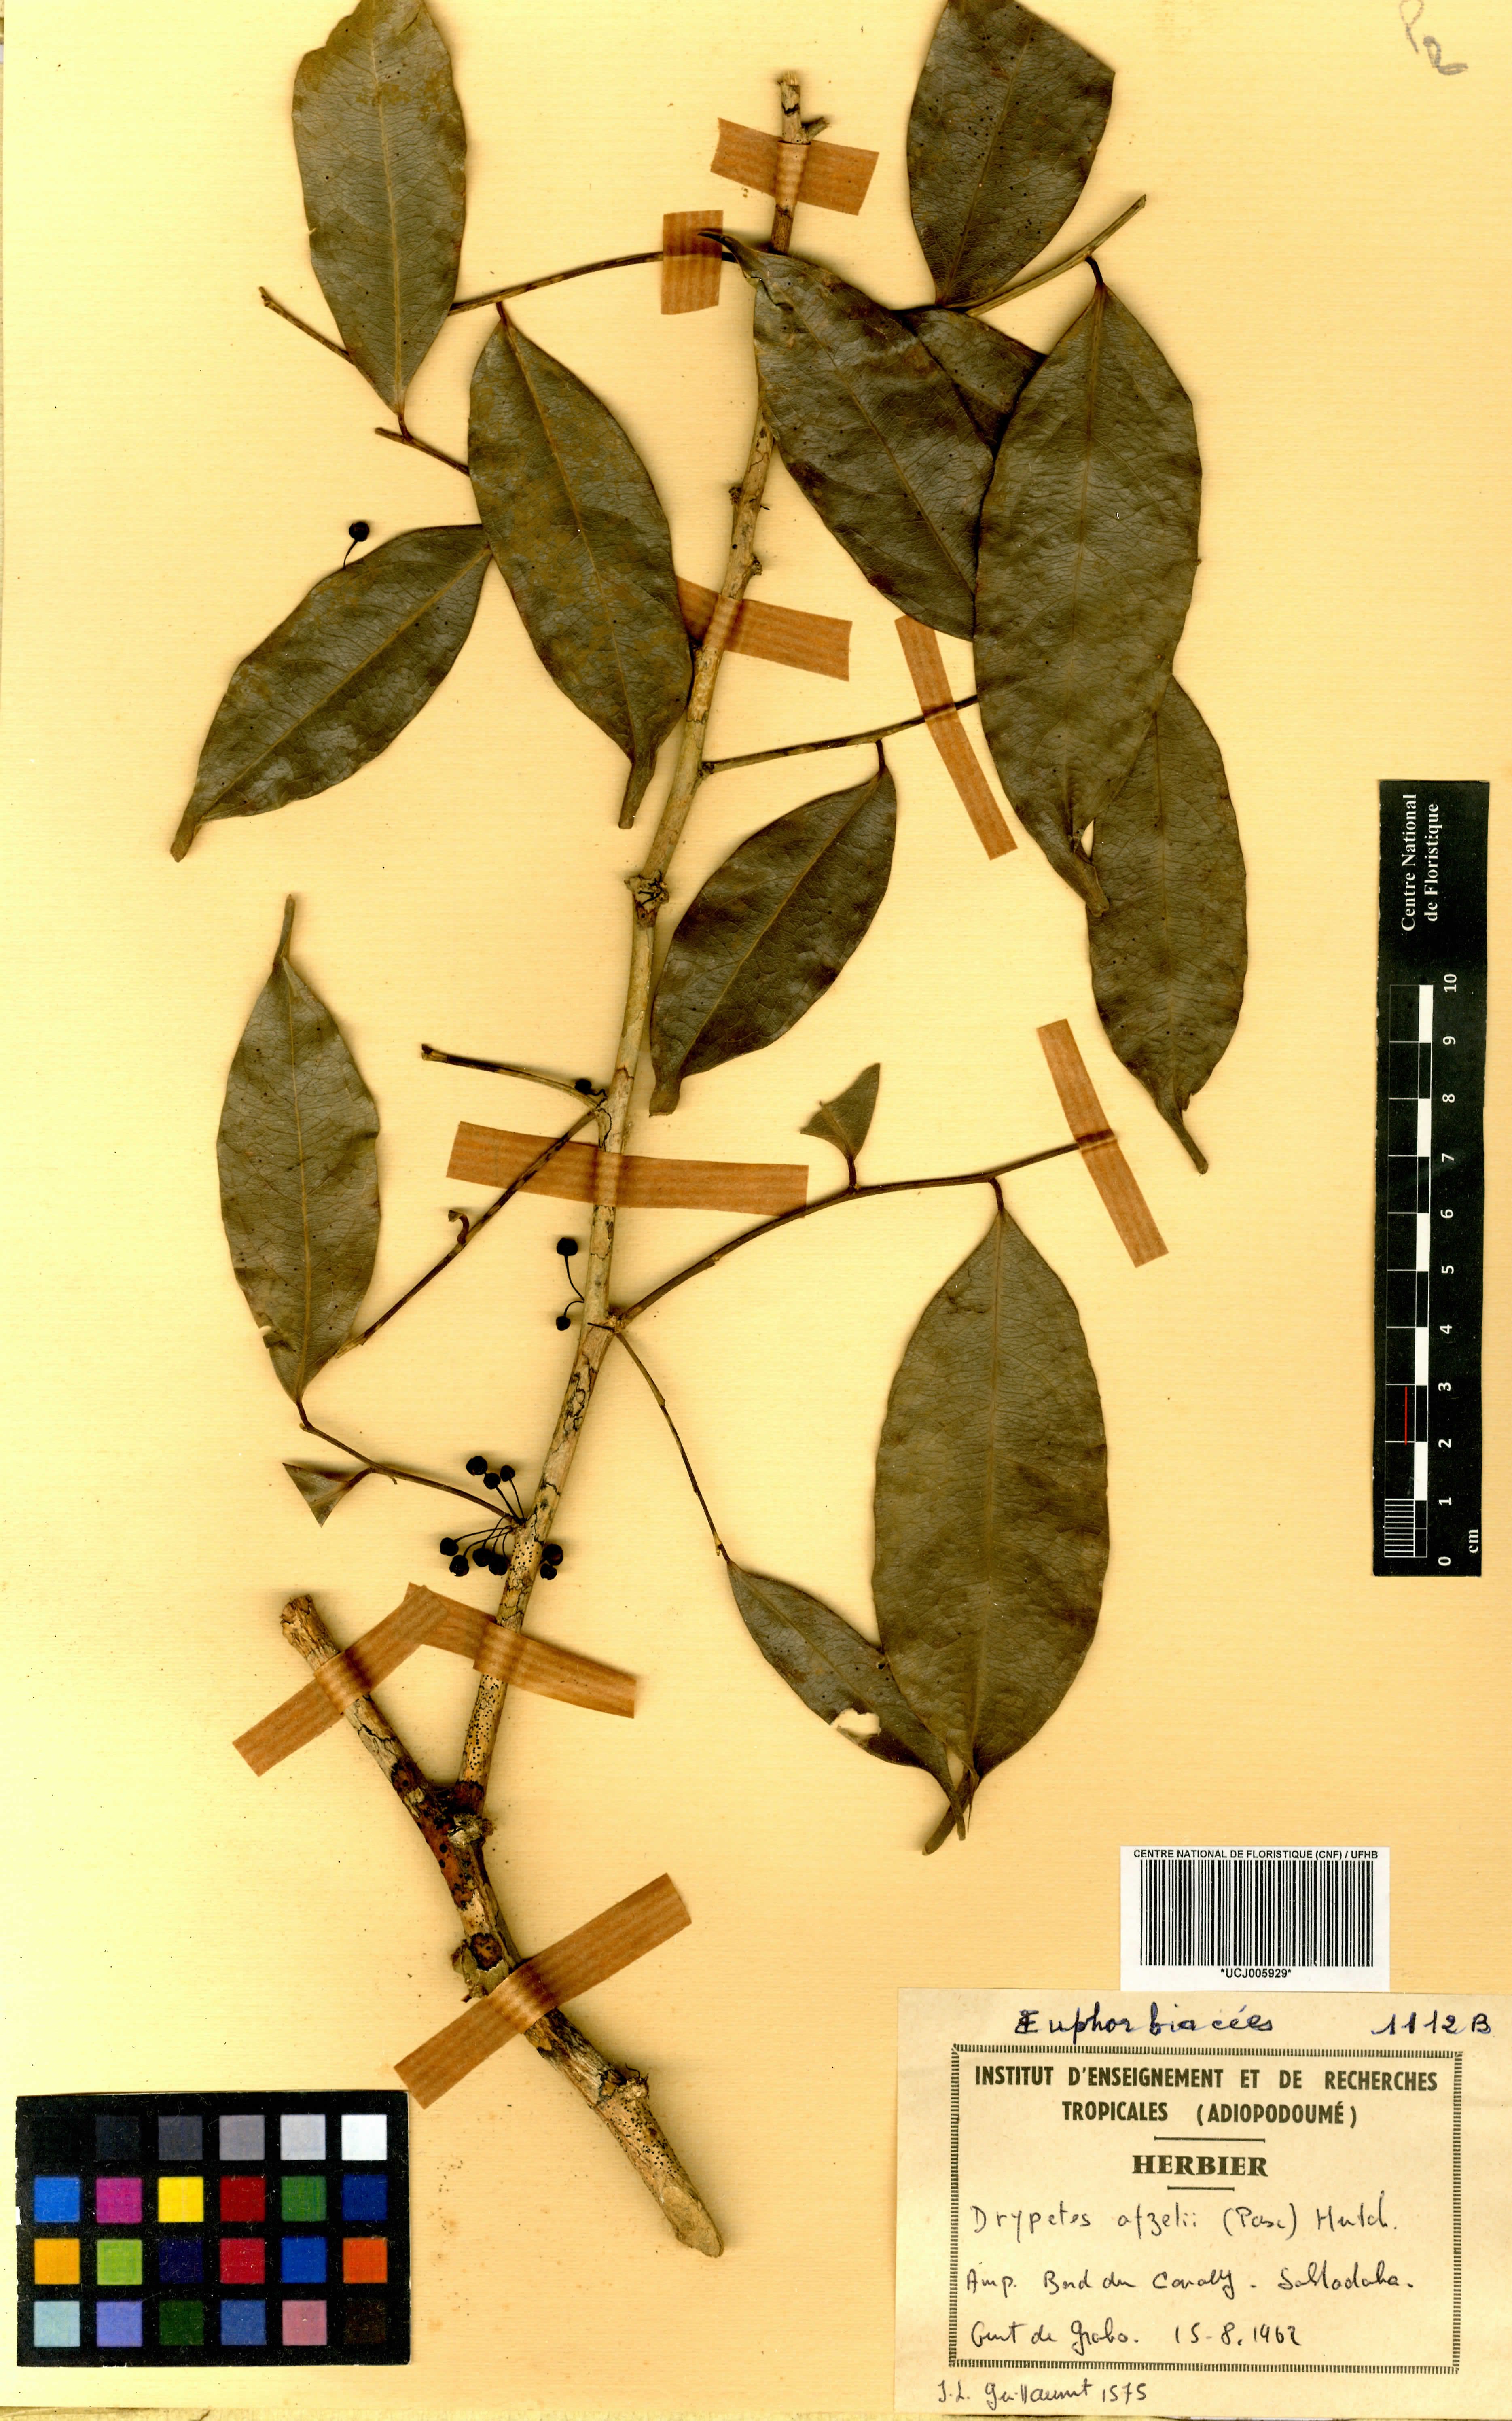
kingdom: Plantae
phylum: Tracheophyta
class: Magnoliopsida
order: Malpighiales
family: Putranjivaceae
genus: Drypetes
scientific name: Drypetes afzelii
